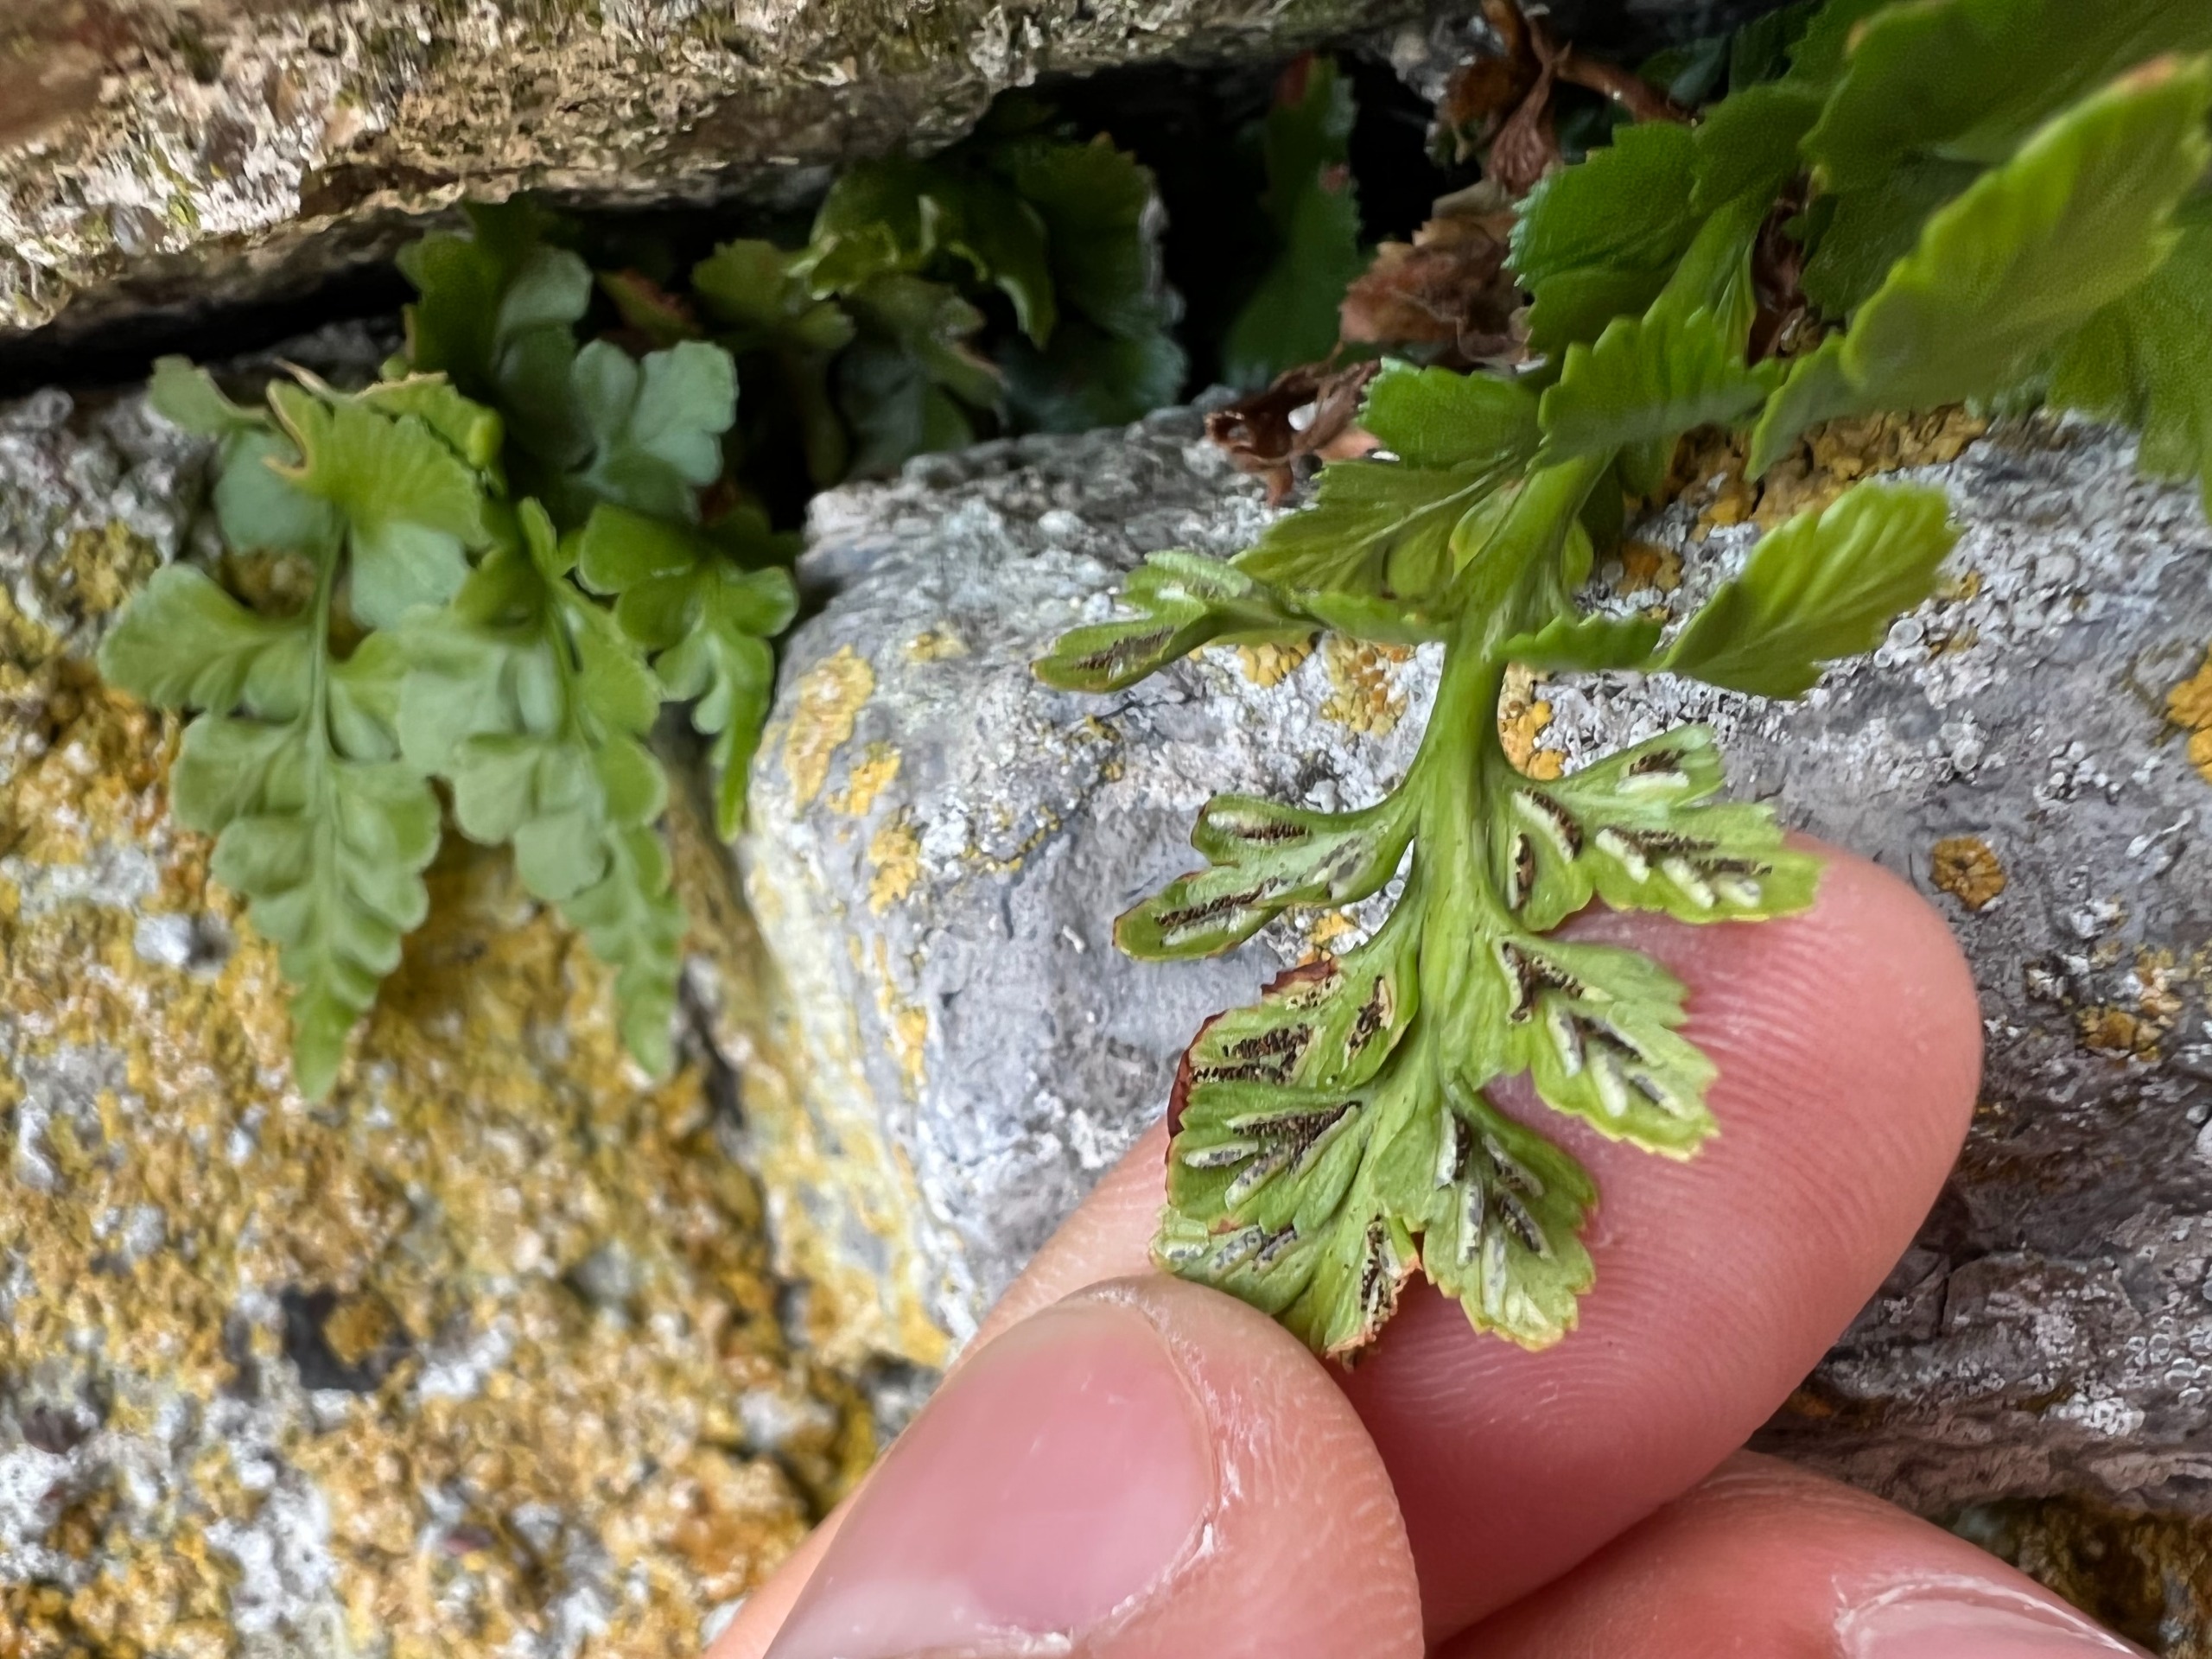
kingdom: Plantae
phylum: Tracheophyta
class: Polypodiopsida
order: Polypodiales
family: Aspleniaceae
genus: Asplenium
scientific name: Asplenium adiantum-nigrum
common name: Sort radeløv
